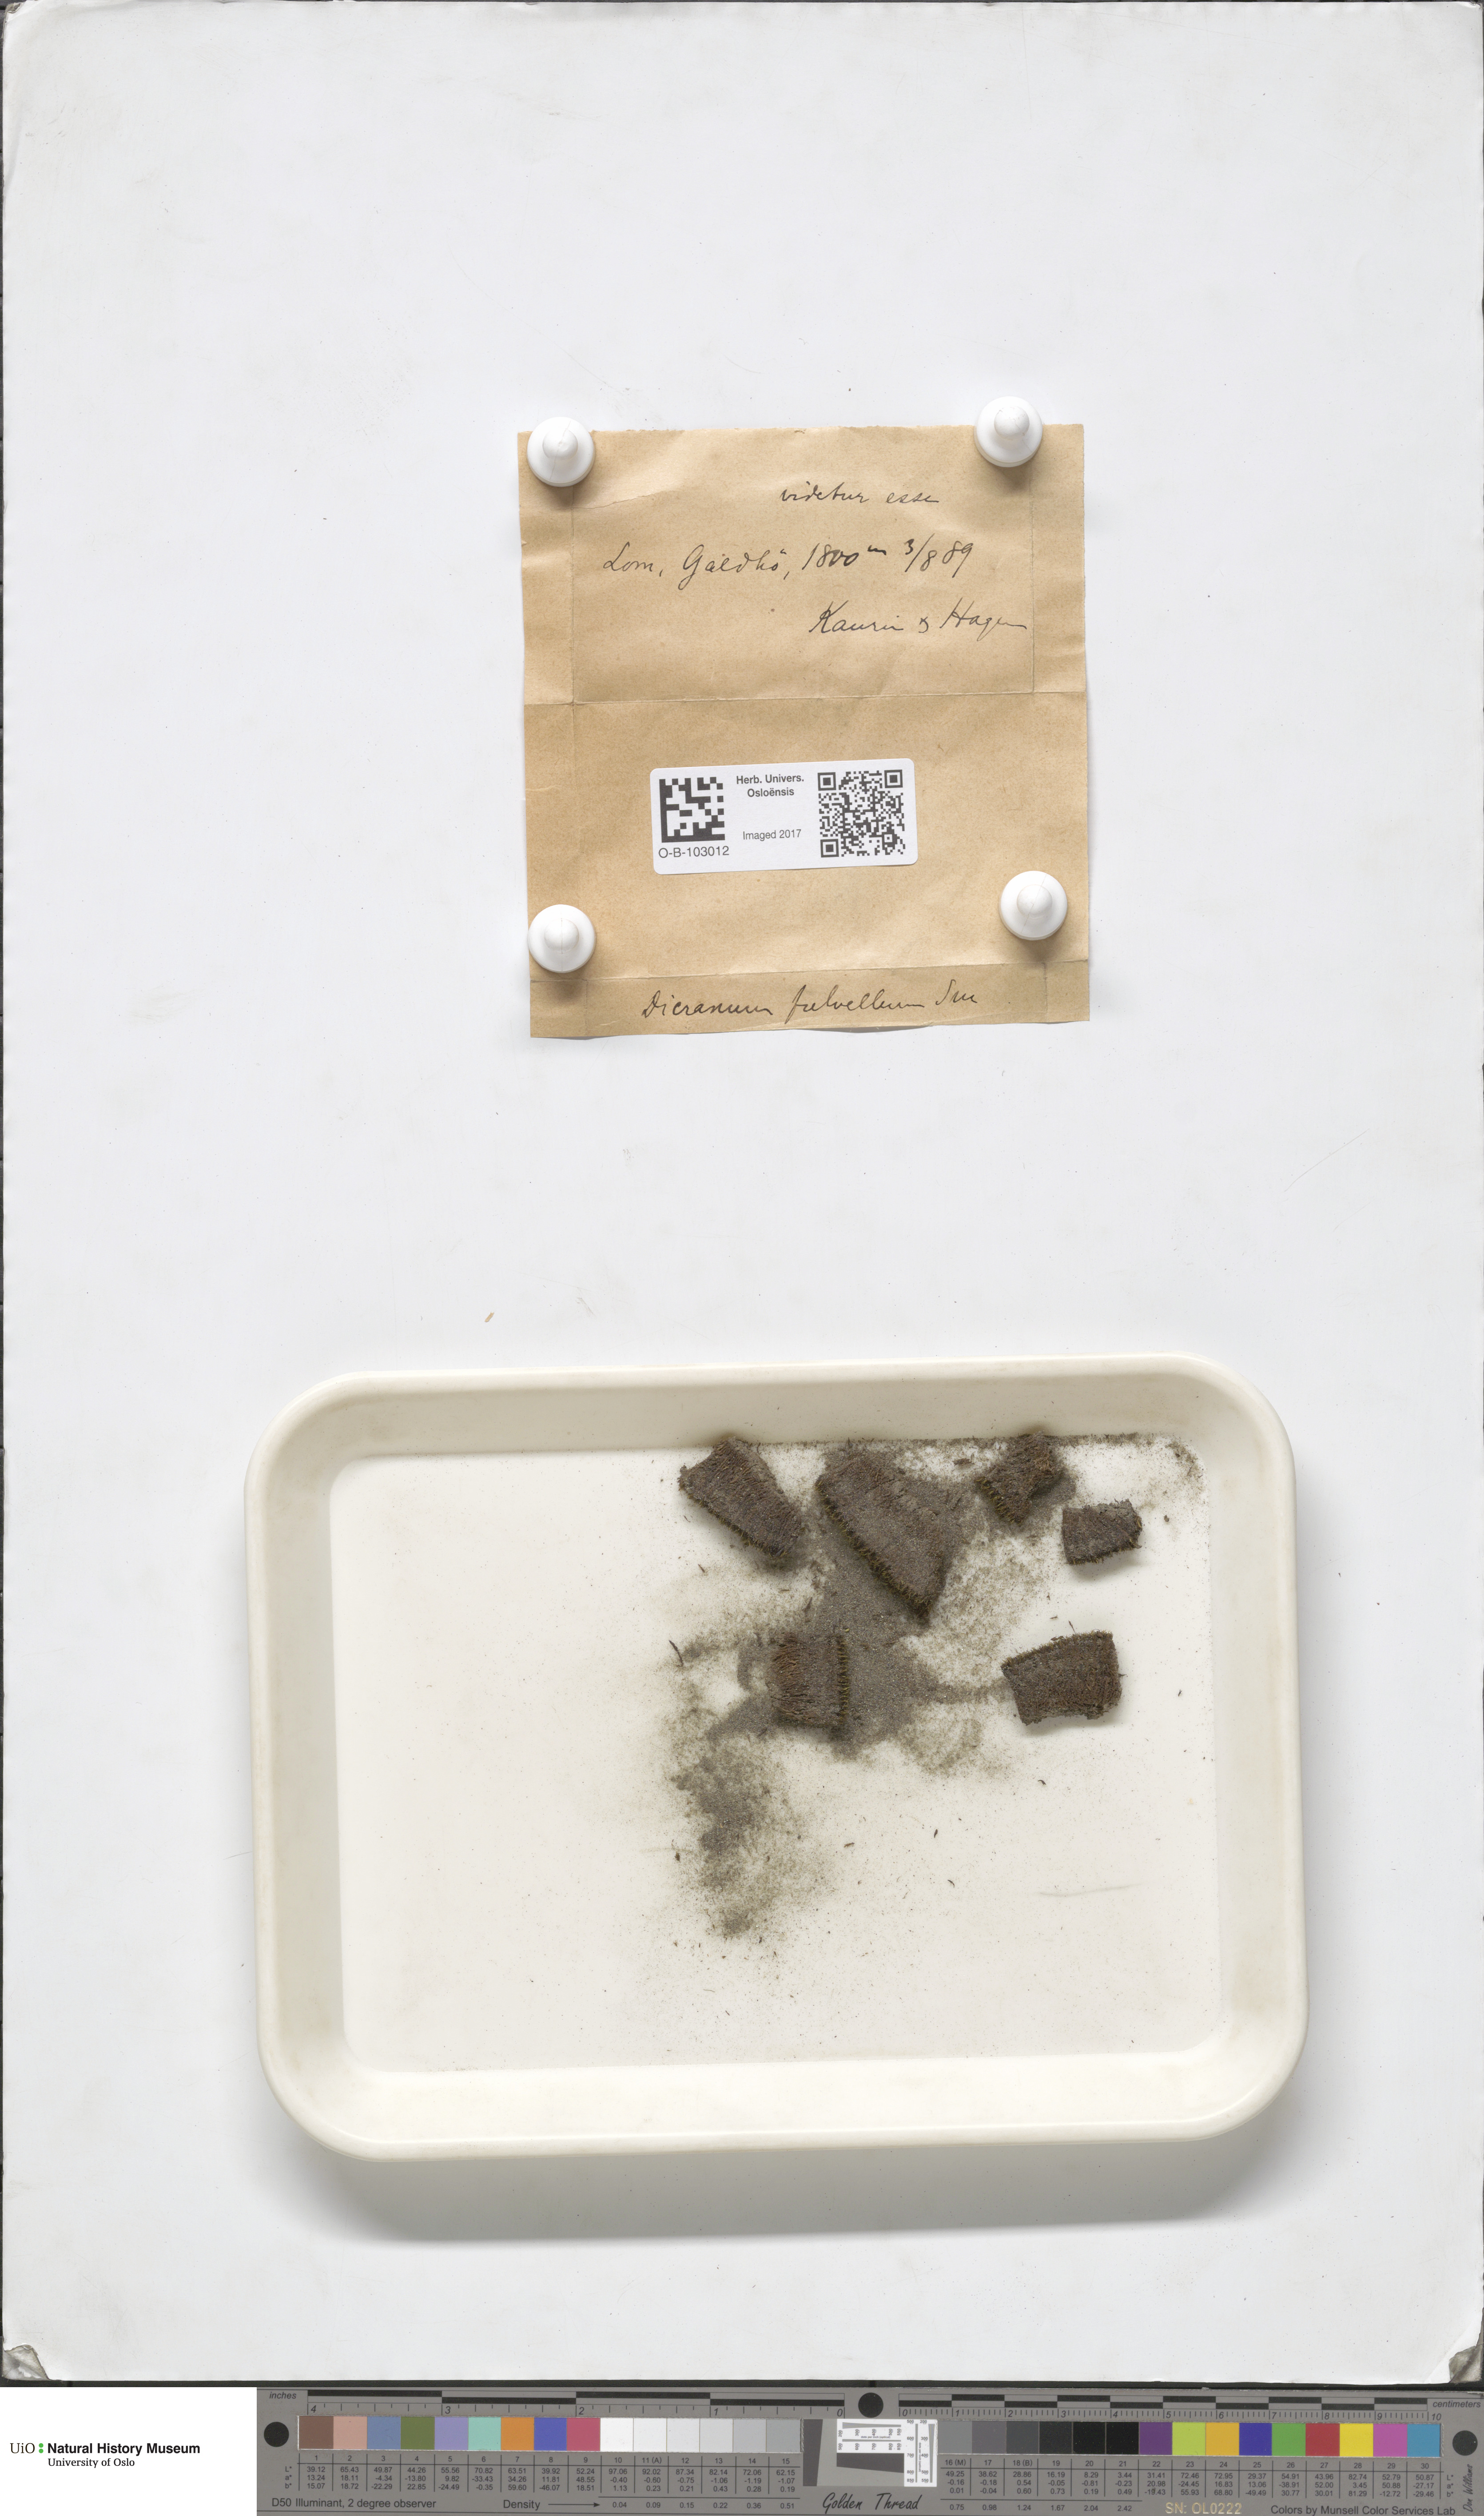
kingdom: Plantae
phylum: Bryophyta
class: Bryopsida
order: Dicranales
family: Rhabdoweisiaceae
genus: Arctoa
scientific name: Arctoa fulvella
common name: Tawny fork moss
